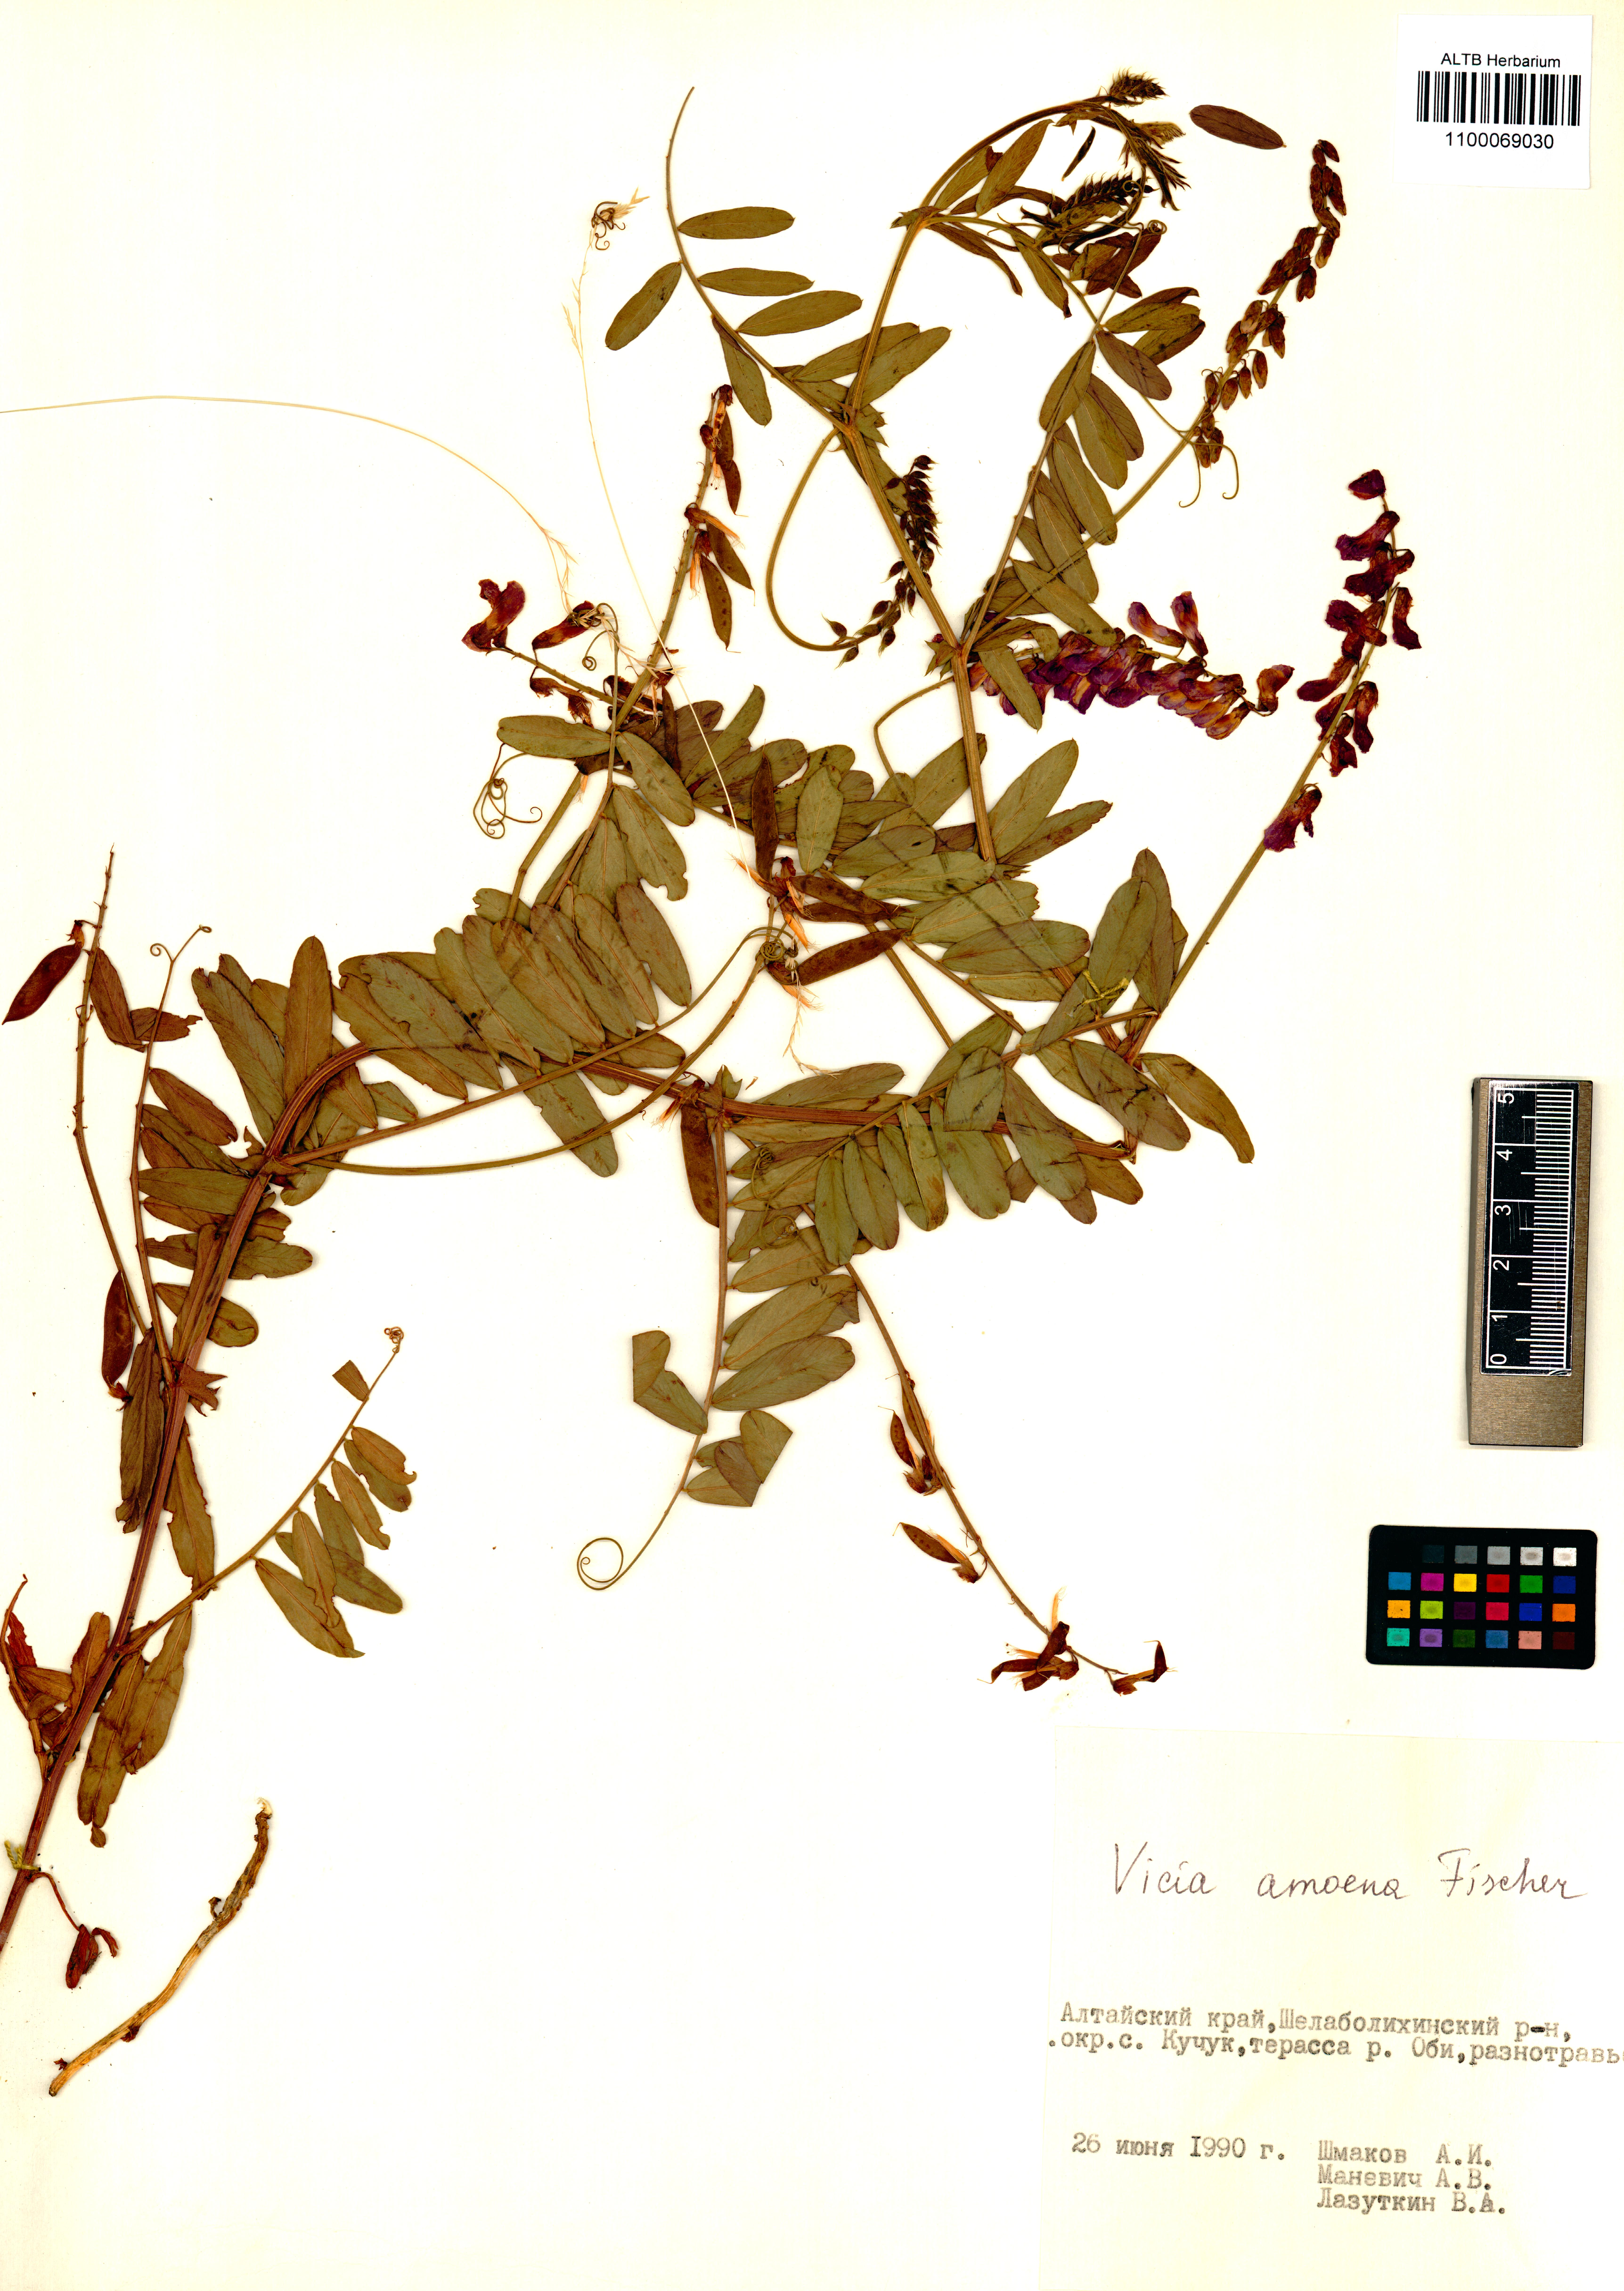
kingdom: Plantae
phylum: Tracheophyta
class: Magnoliopsida
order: Fabales
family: Fabaceae
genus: Vicia
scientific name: Vicia amoena
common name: Cheder ebs
